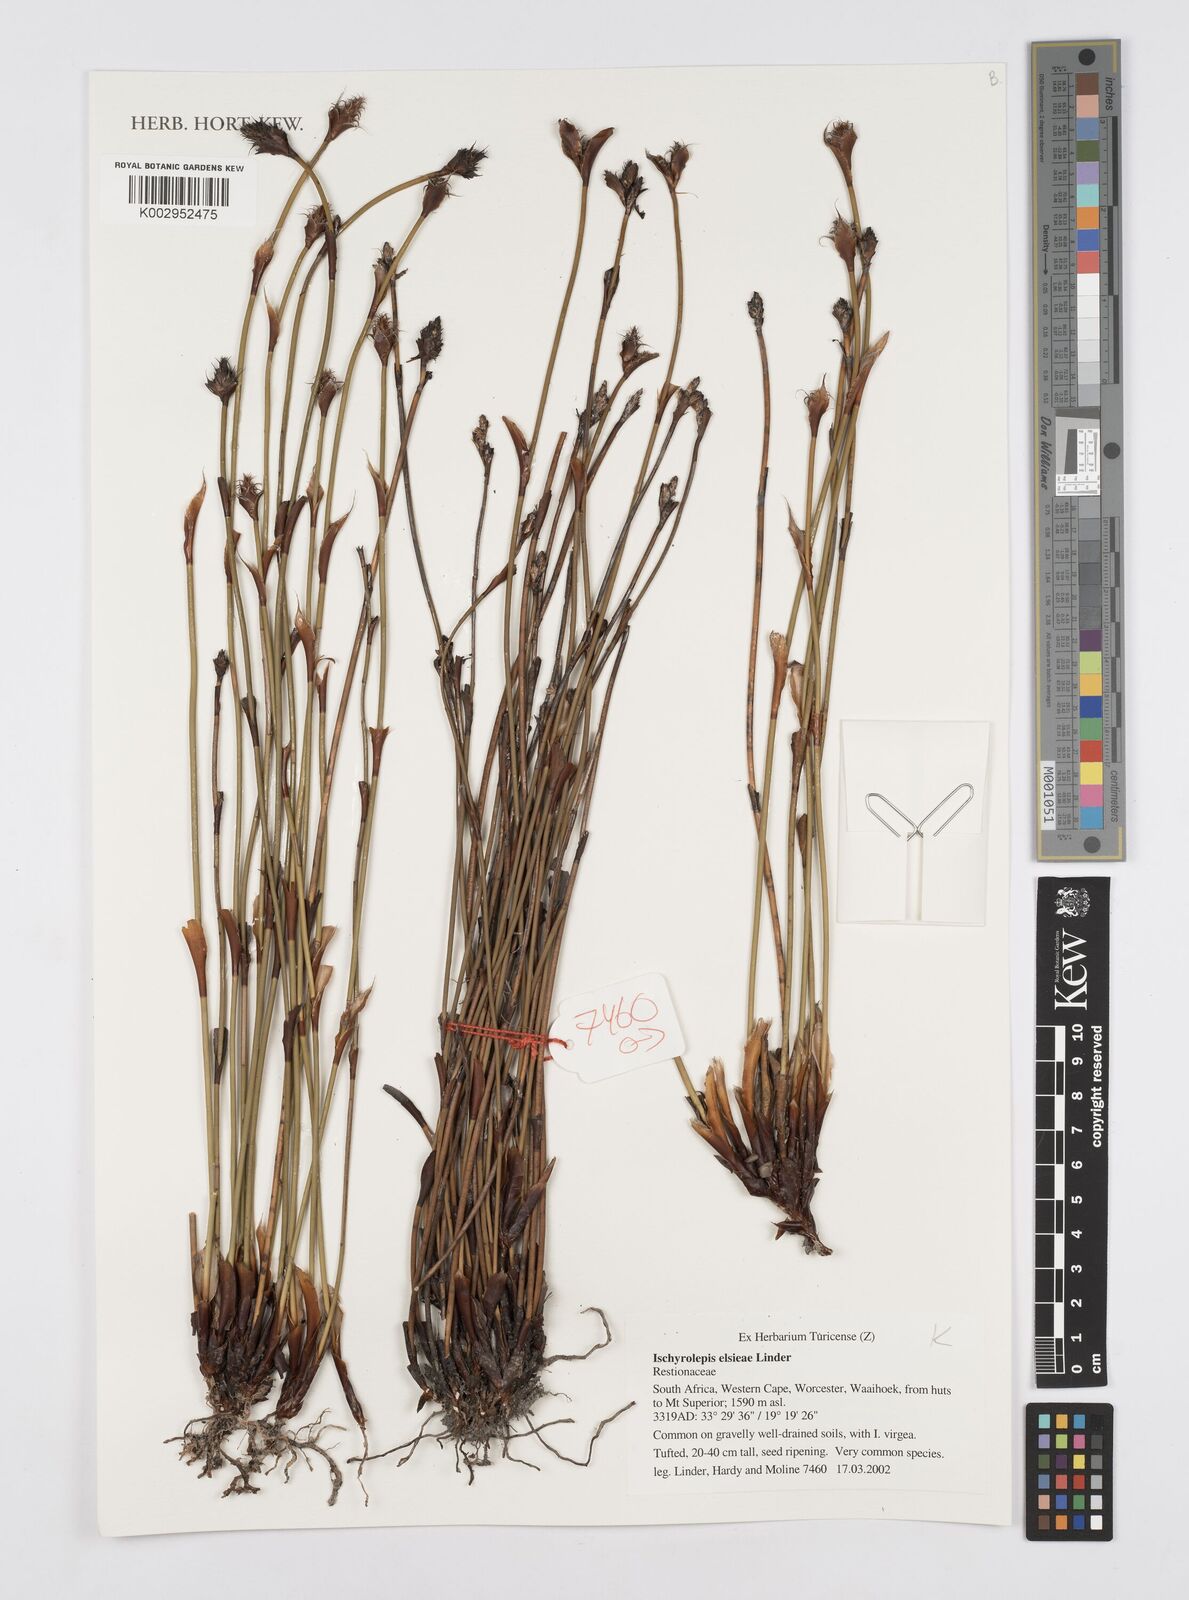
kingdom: Plantae
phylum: Tracheophyta
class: Liliopsida
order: Poales
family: Restionaceae
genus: Restio
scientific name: Restio elsieae
